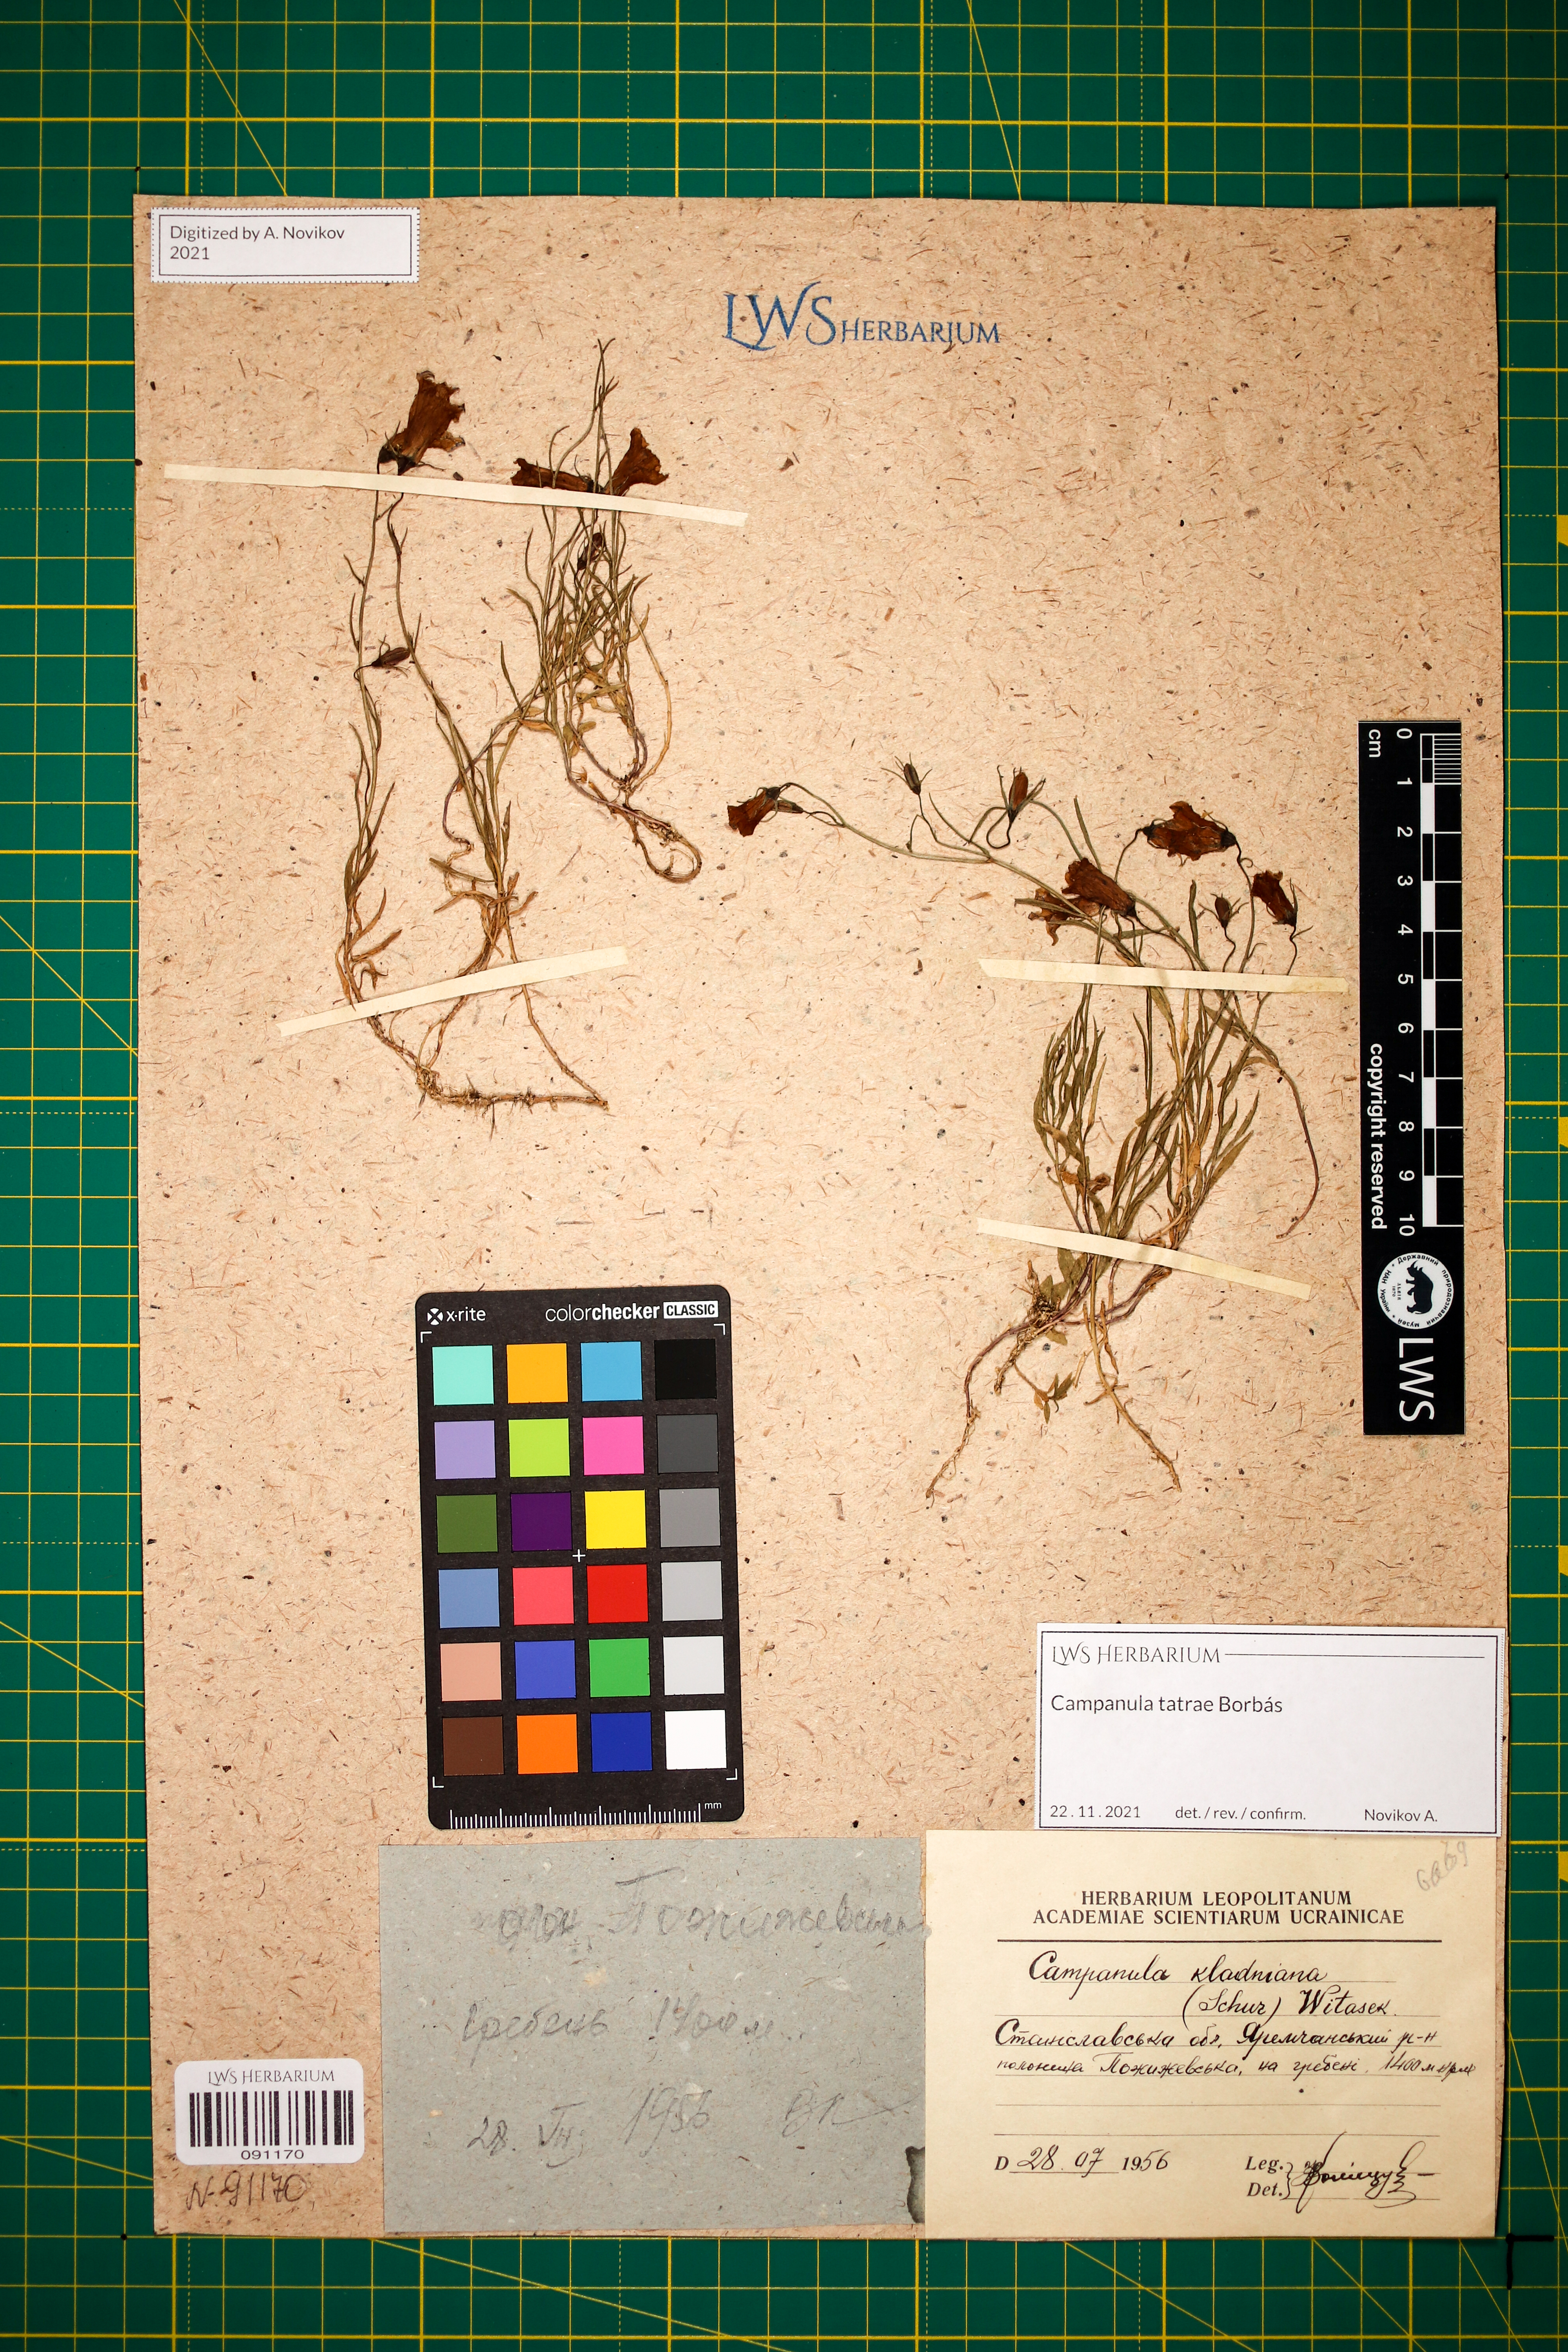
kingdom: Plantae
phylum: Tracheophyta
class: Magnoliopsida
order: Asterales
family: Campanulaceae
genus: Campanula
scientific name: Campanula kladniana
